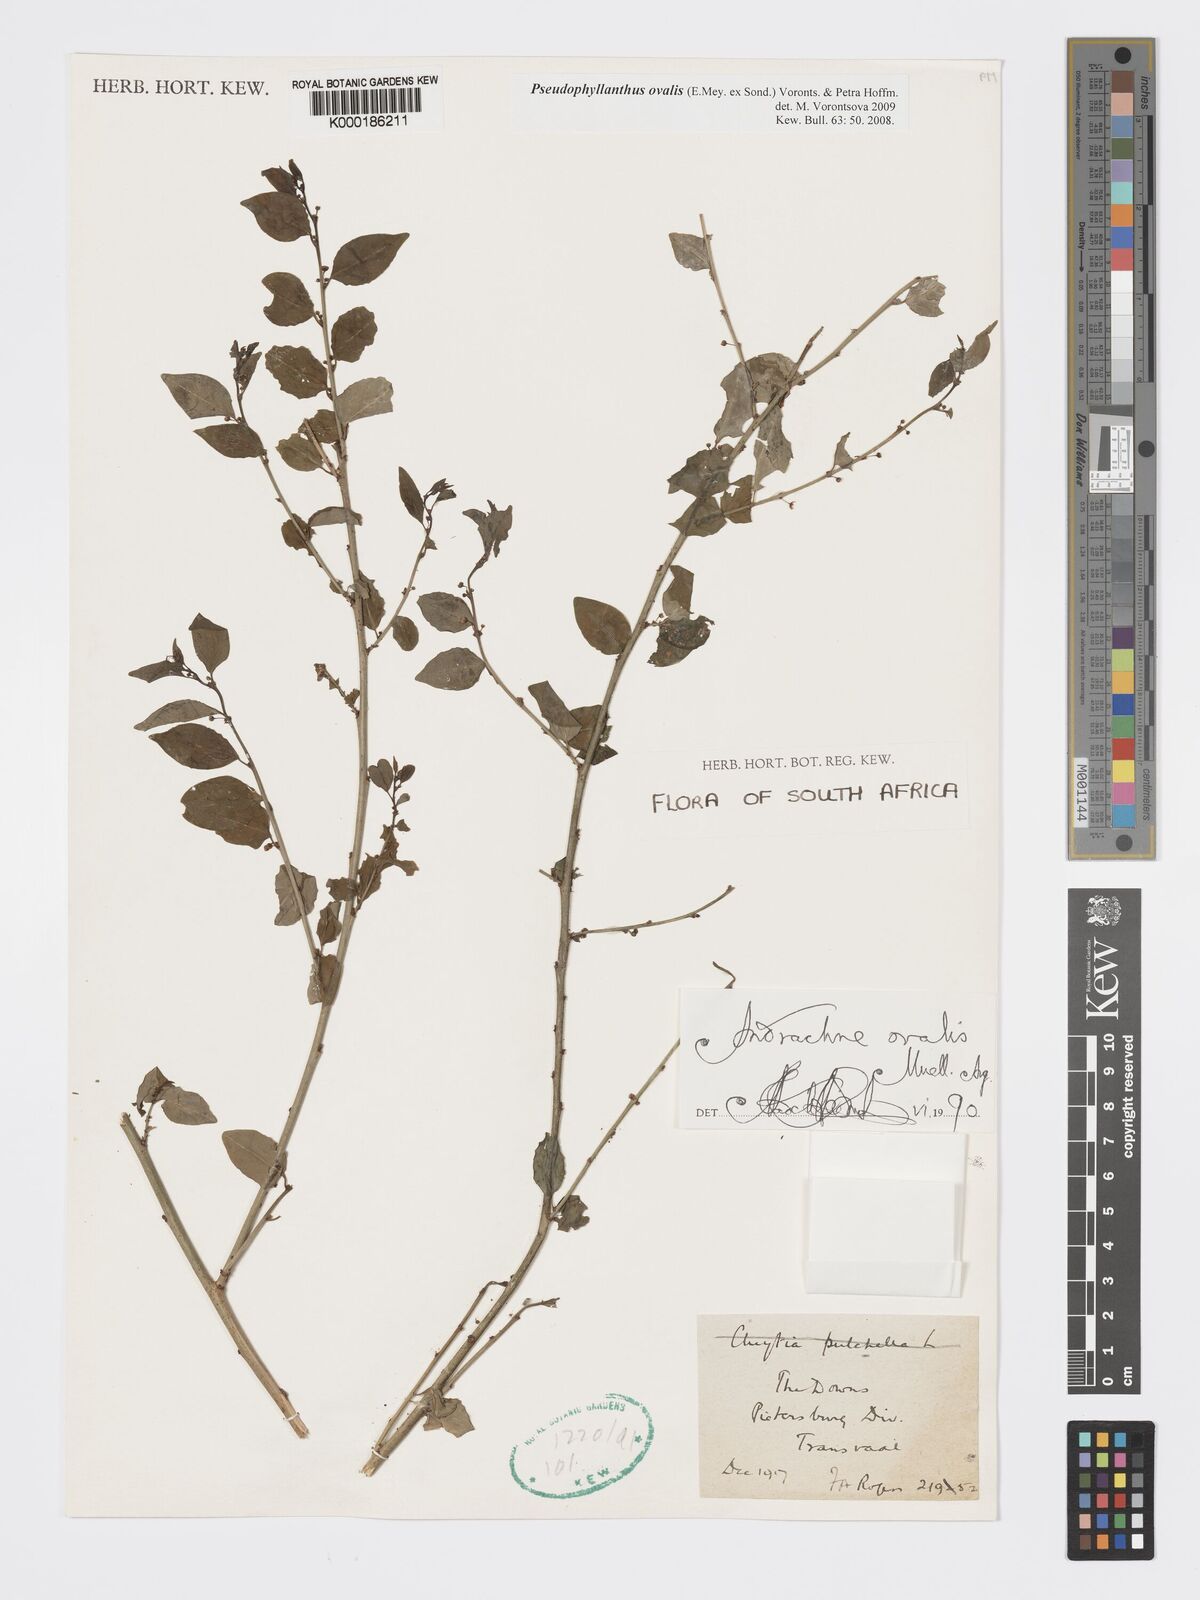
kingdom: Plantae
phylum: Tracheophyta
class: Magnoliopsida
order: Malpighiales
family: Phyllanthaceae
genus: Pseudophyllanthus
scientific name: Pseudophyllanthus ovalis
